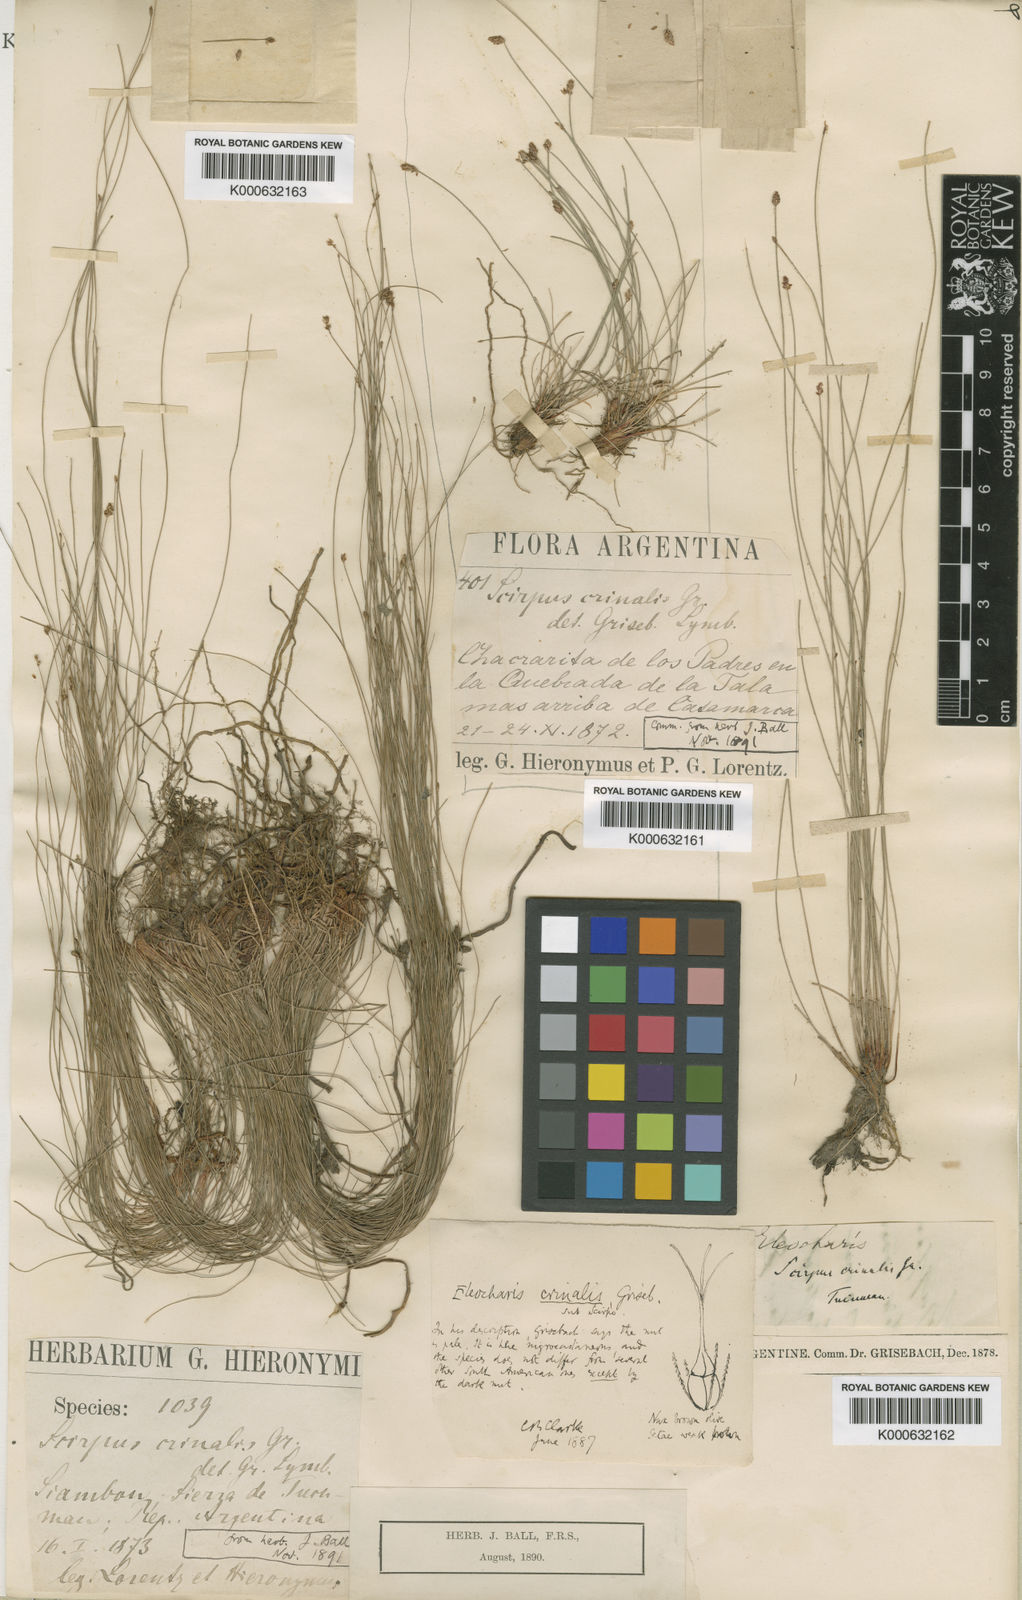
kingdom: Plantae
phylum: Tracheophyta
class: Liliopsida
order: Poales
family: Cyperaceae
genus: Eleocharis
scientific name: Eleocharis crinalis
